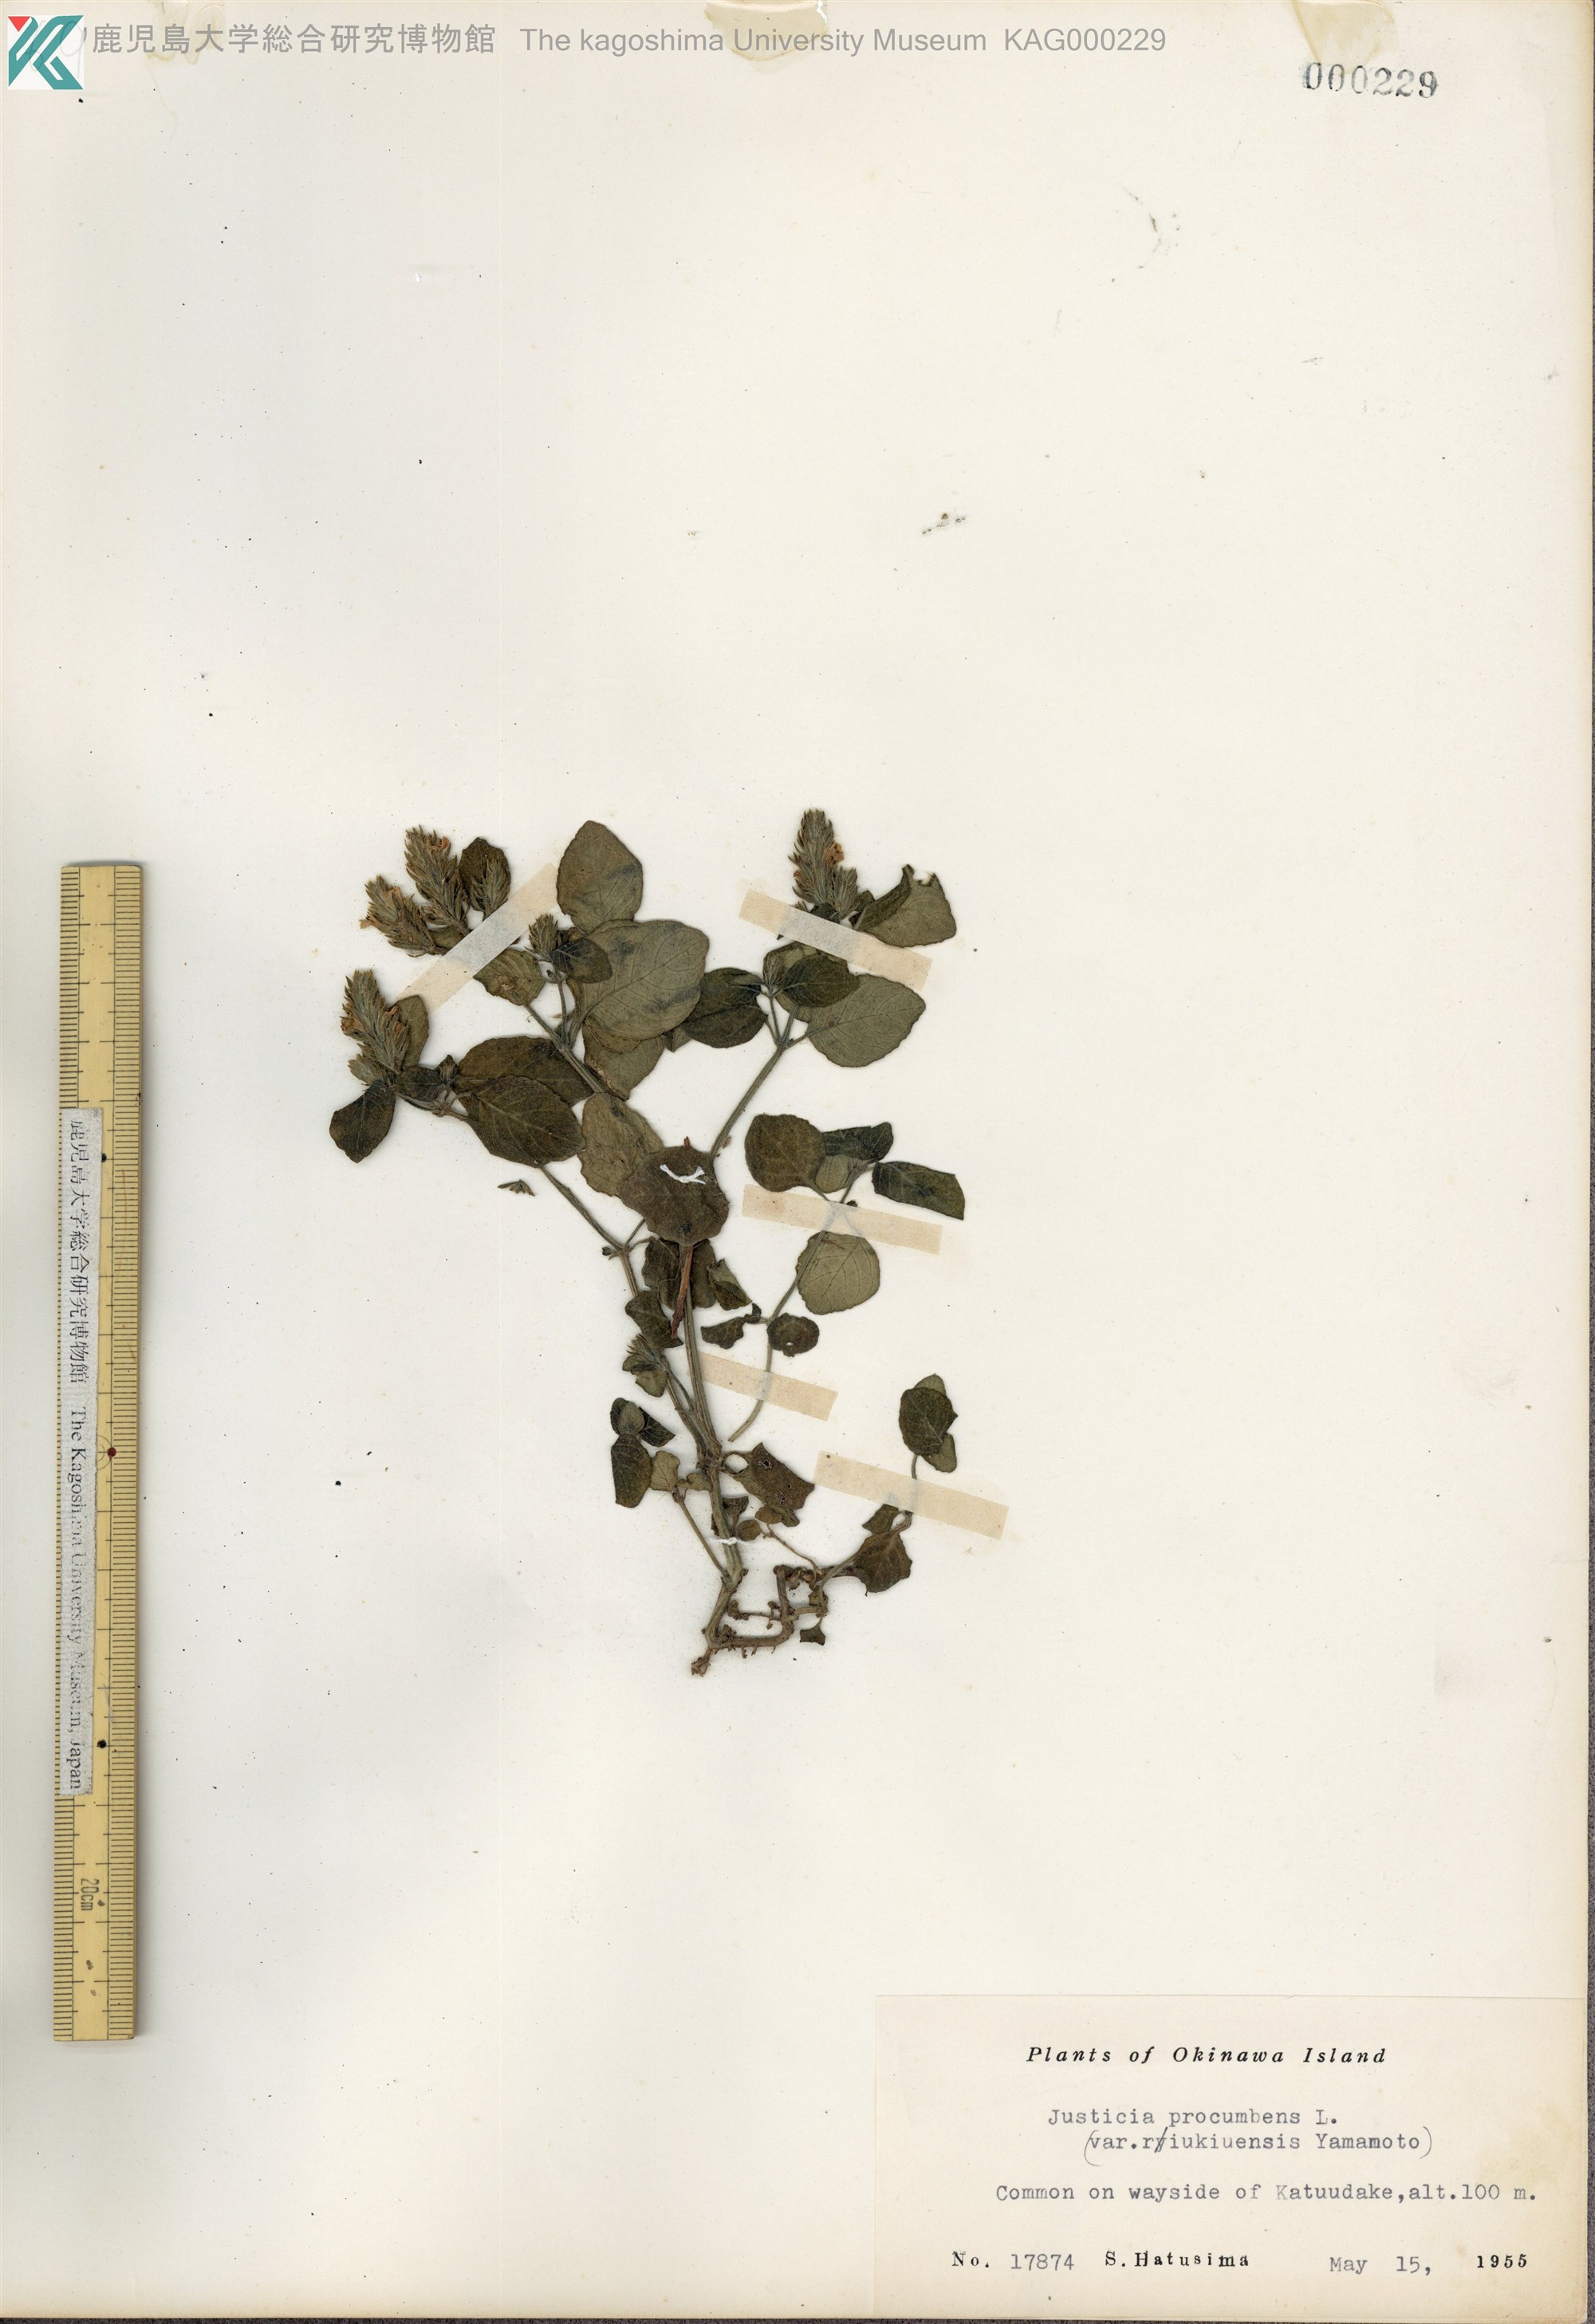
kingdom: Plantae
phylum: Tracheophyta
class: Magnoliopsida
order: Lamiales
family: Acanthaceae
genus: Rostellularia
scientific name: Rostellularia procumbens
